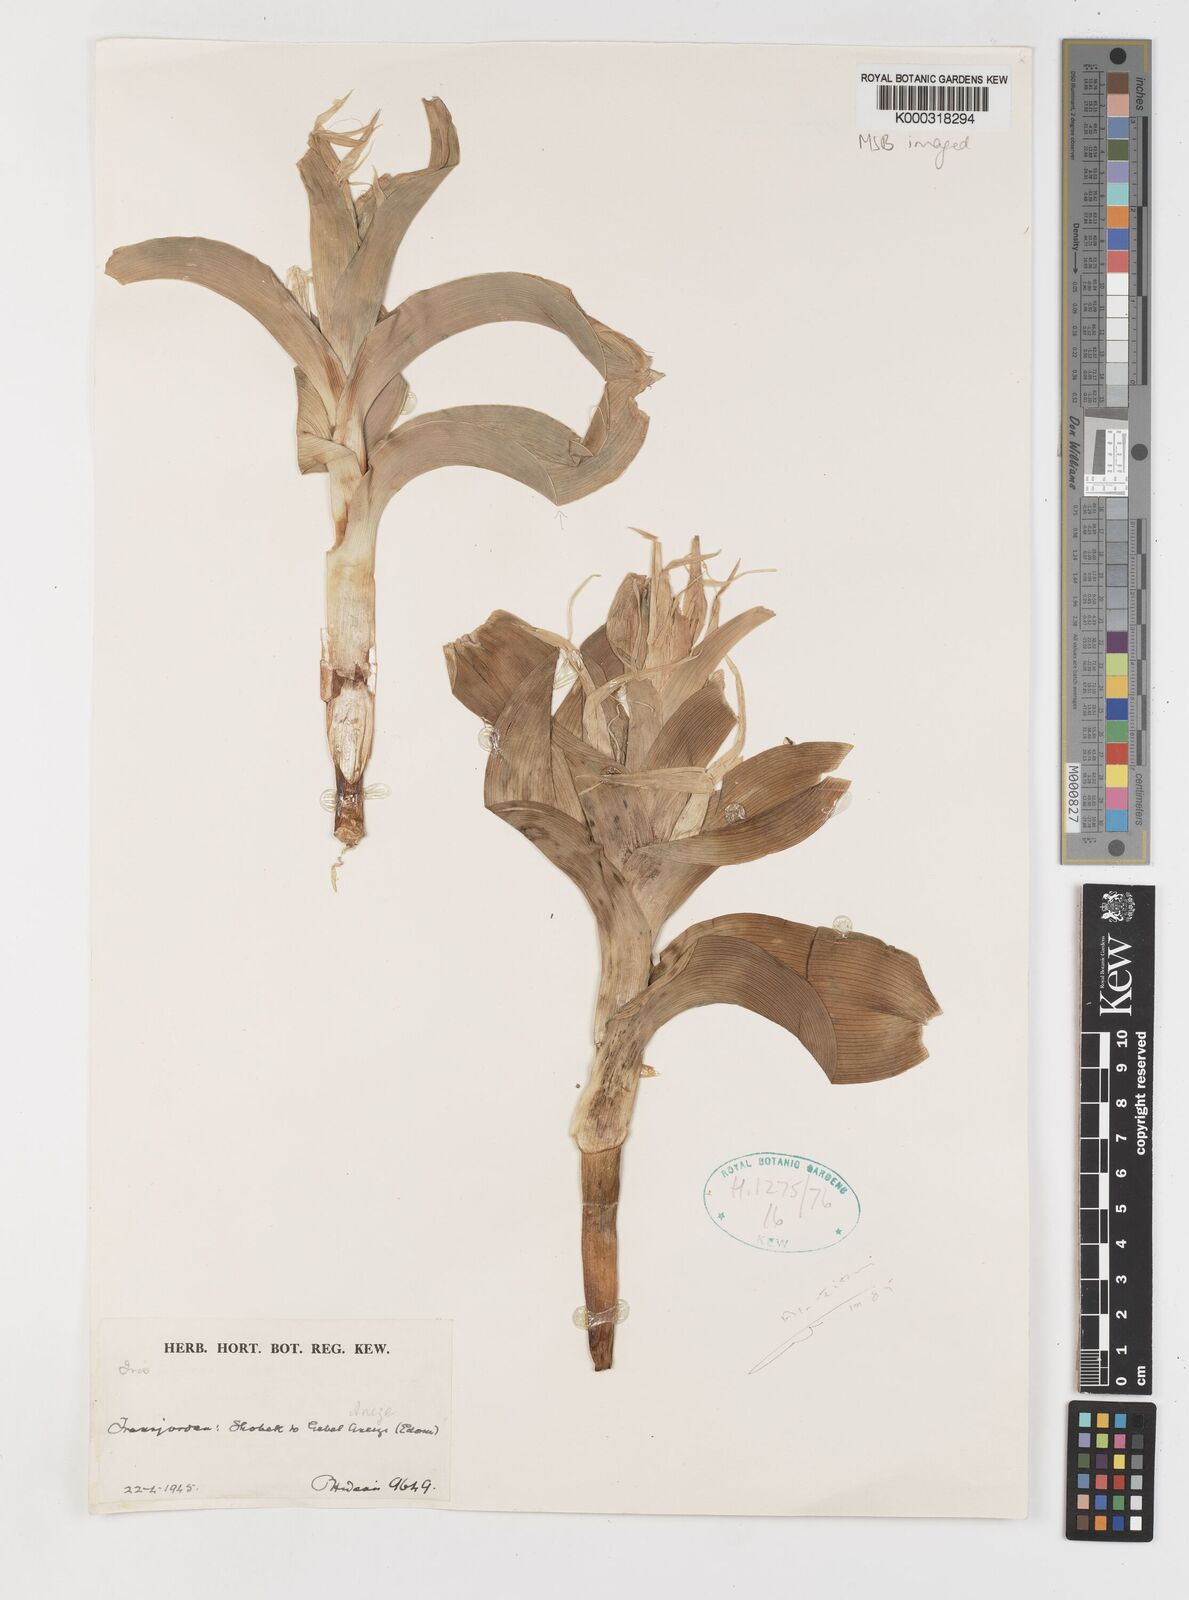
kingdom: Plantae
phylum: Tracheophyta
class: Liliopsida
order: Asparagales
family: Iridaceae
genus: Iris
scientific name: Iris aucheri
